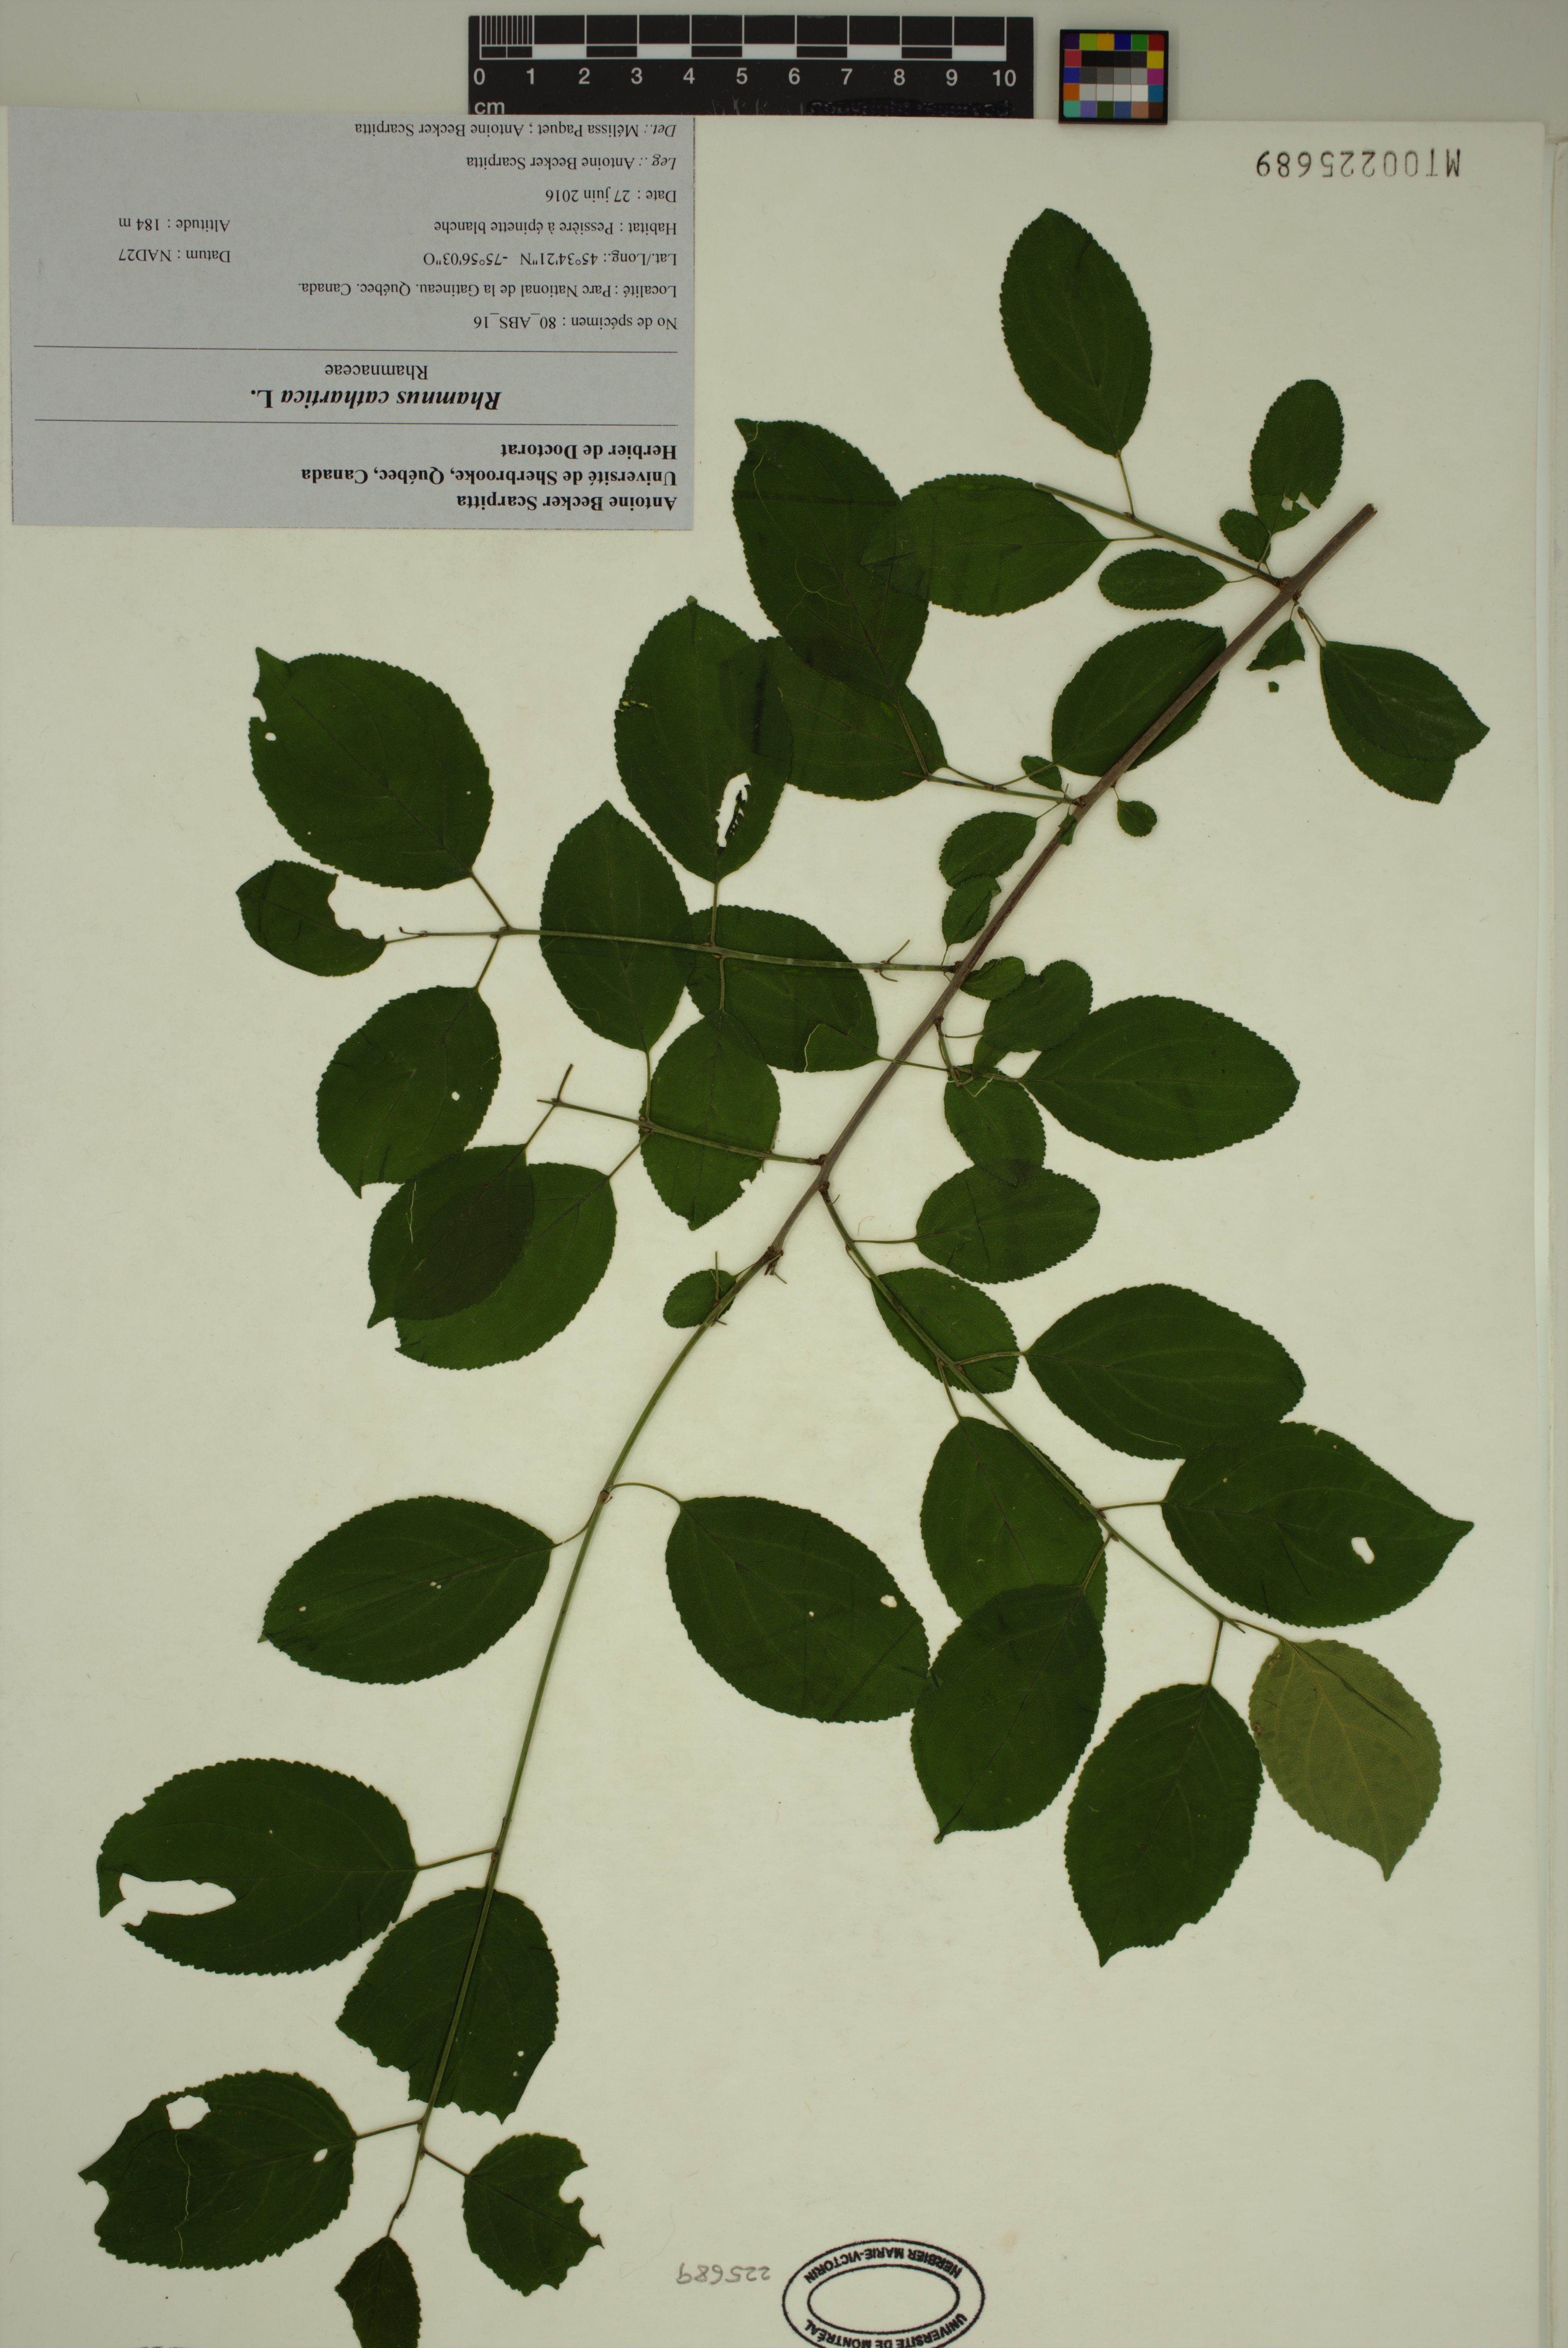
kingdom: Plantae
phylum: Tracheophyta
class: Magnoliopsida
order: Rosales
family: Rhamnaceae
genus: Rhamnus
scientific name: Rhamnus cathartica
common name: Common buckthorn
